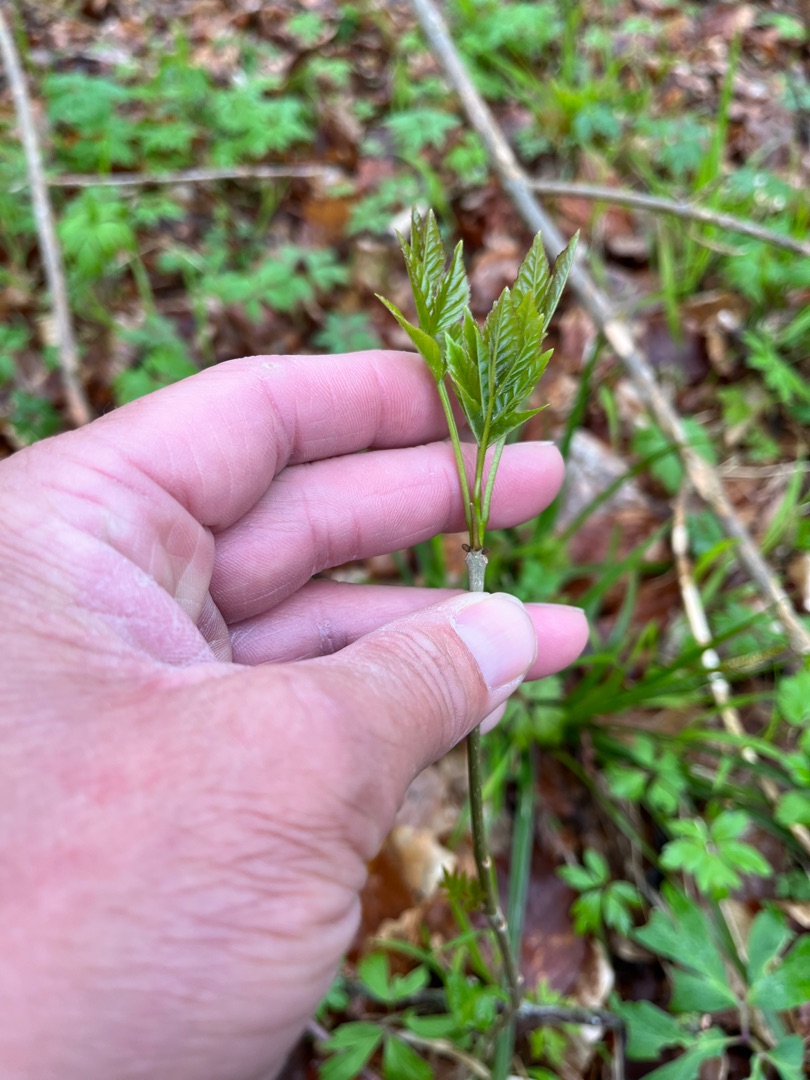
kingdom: Plantae
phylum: Tracheophyta
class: Magnoliopsida
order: Lamiales
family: Oleaceae
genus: Fraxinus
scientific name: Fraxinus excelsior
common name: Ask
